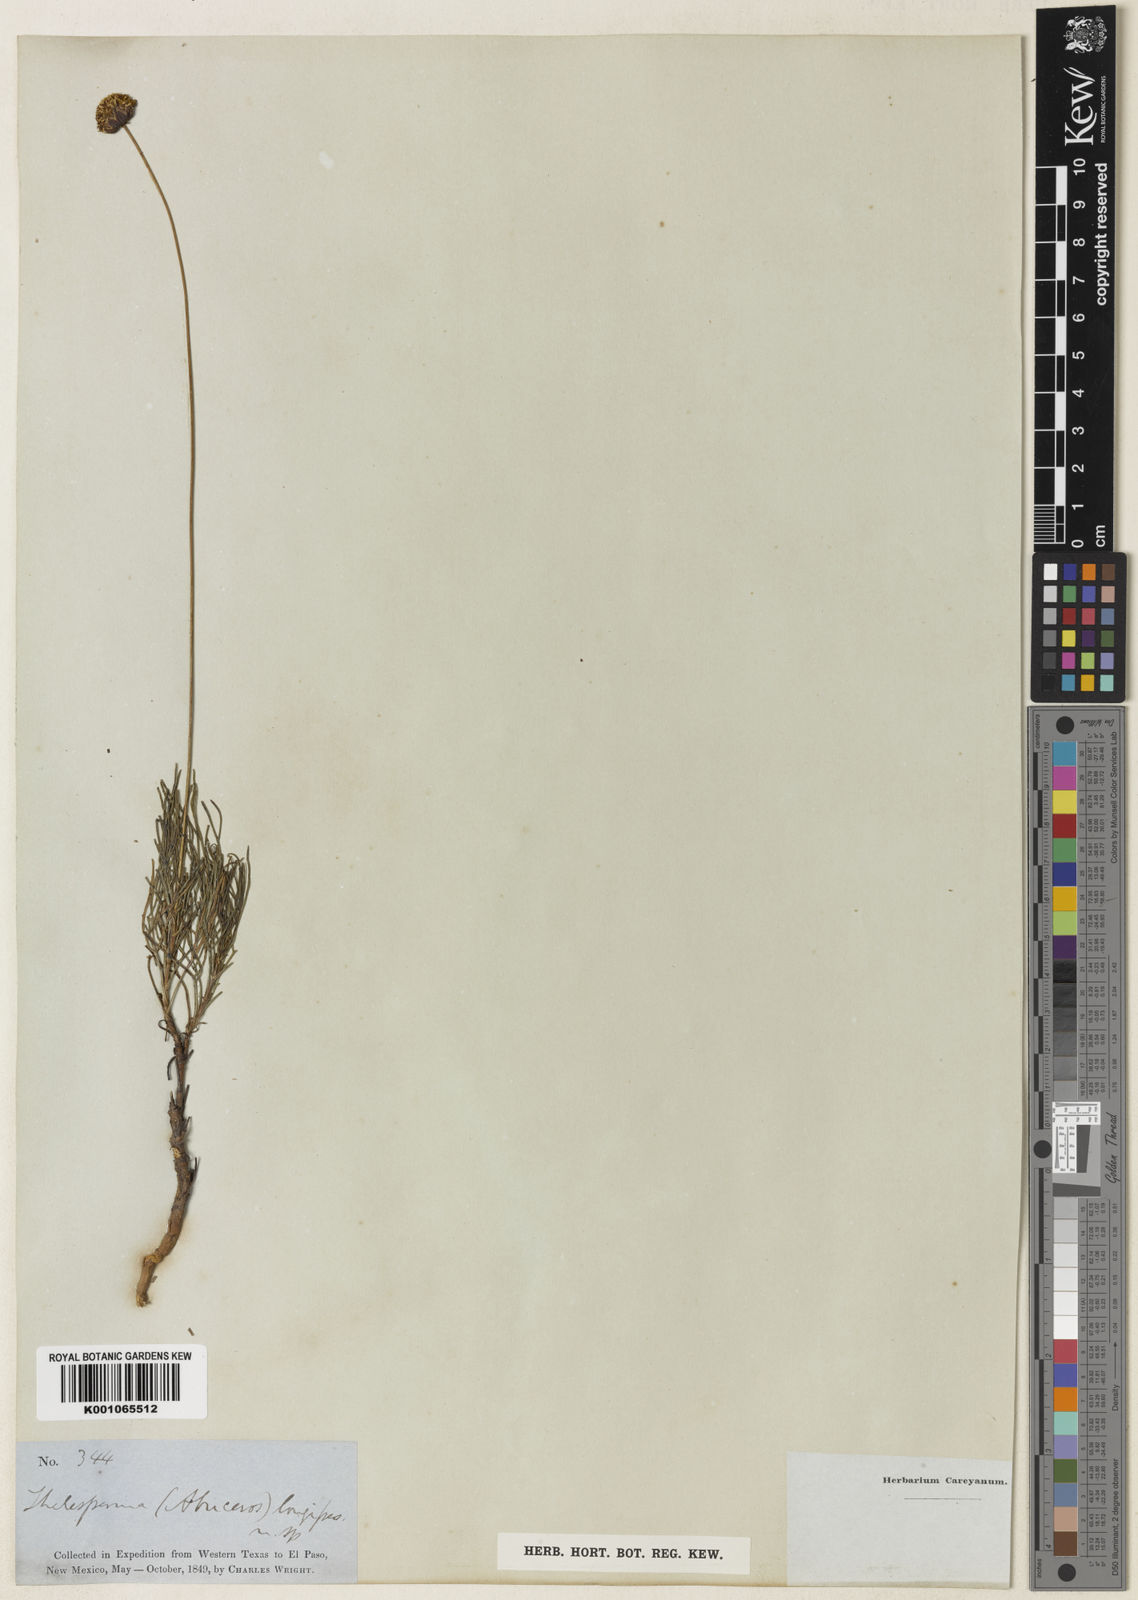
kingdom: Plantae
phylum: Tracheophyta
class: Magnoliopsida
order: Asterales
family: Asteraceae
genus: Thelesperma
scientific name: Thelesperma longipes
